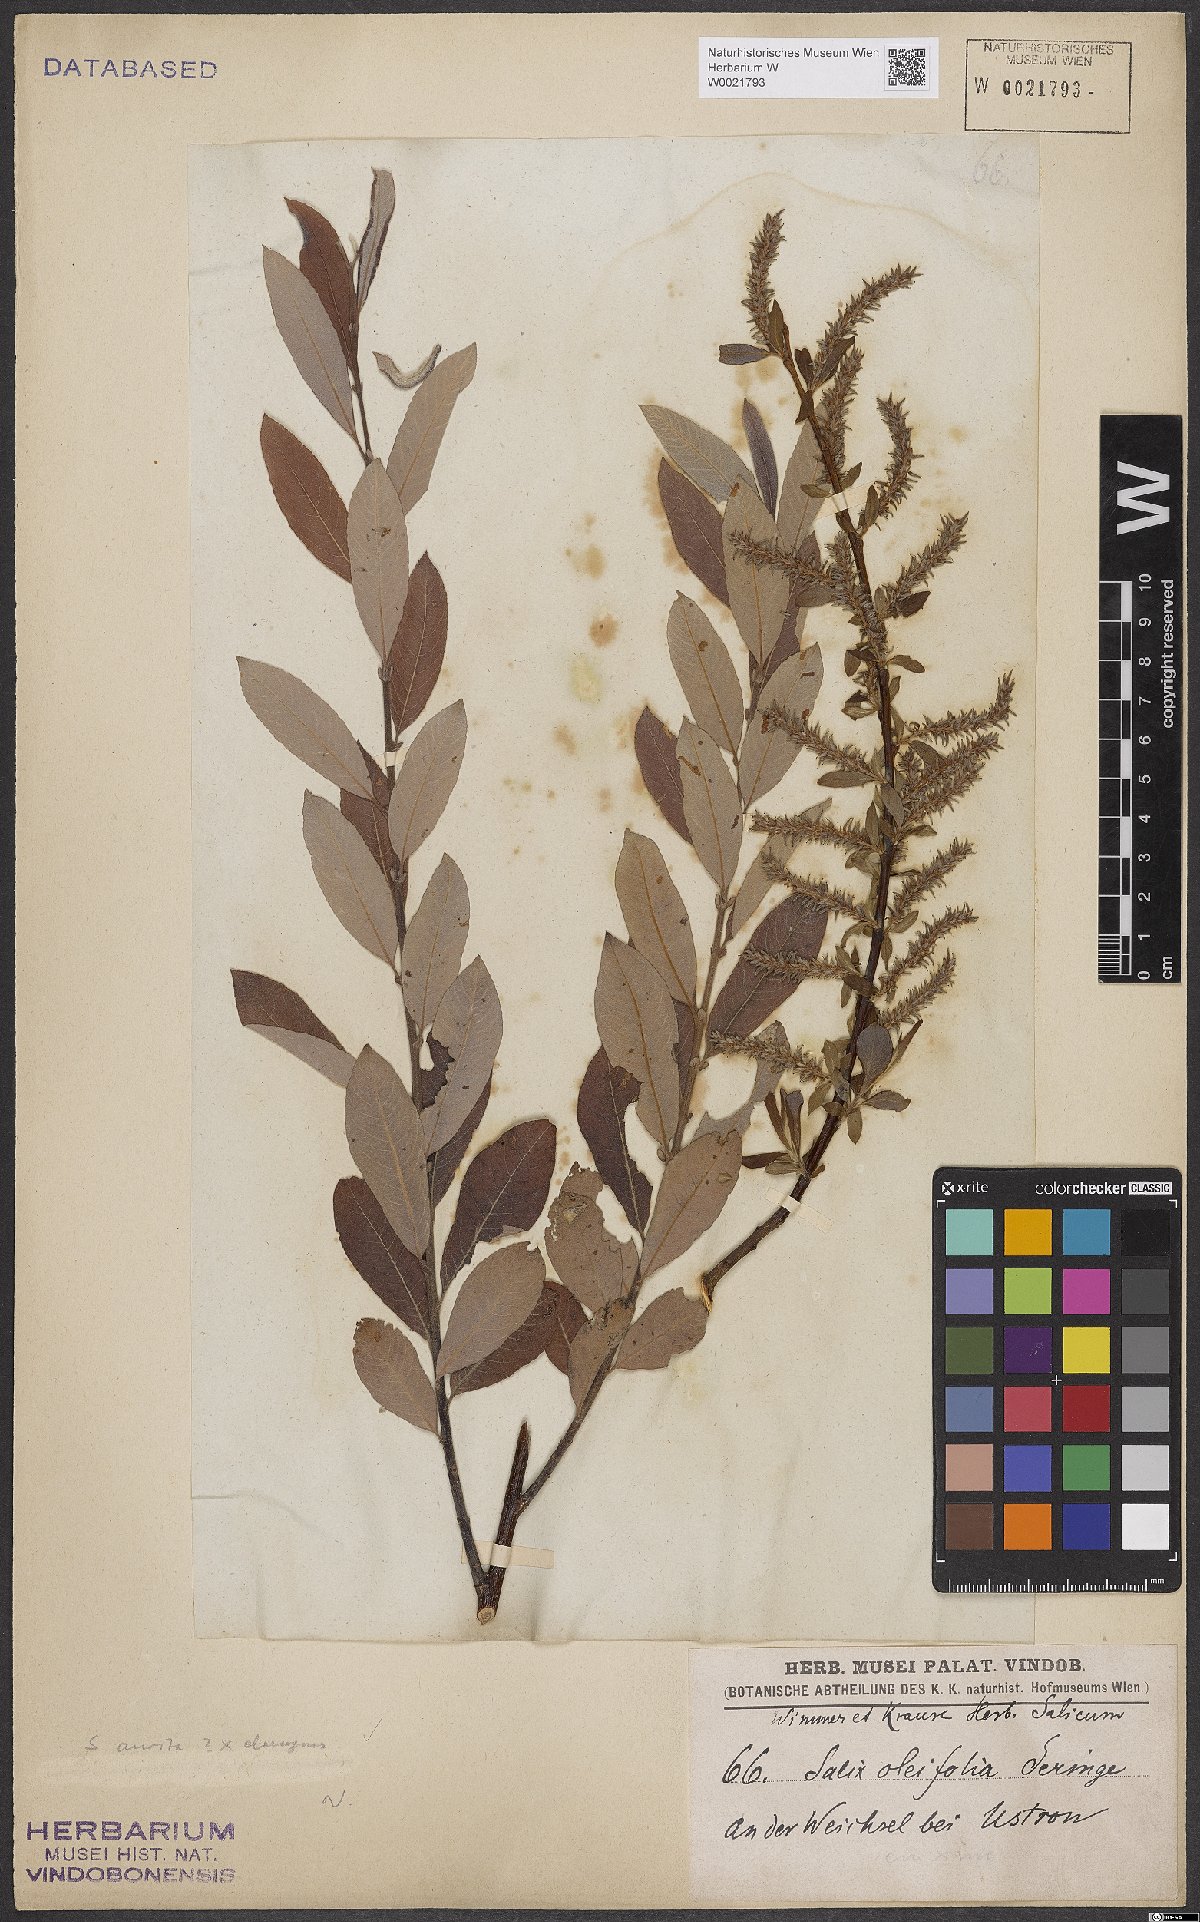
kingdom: Plantae
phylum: Tracheophyta
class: Magnoliopsida
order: Malpighiales
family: Salicaceae
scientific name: Salicaceae
